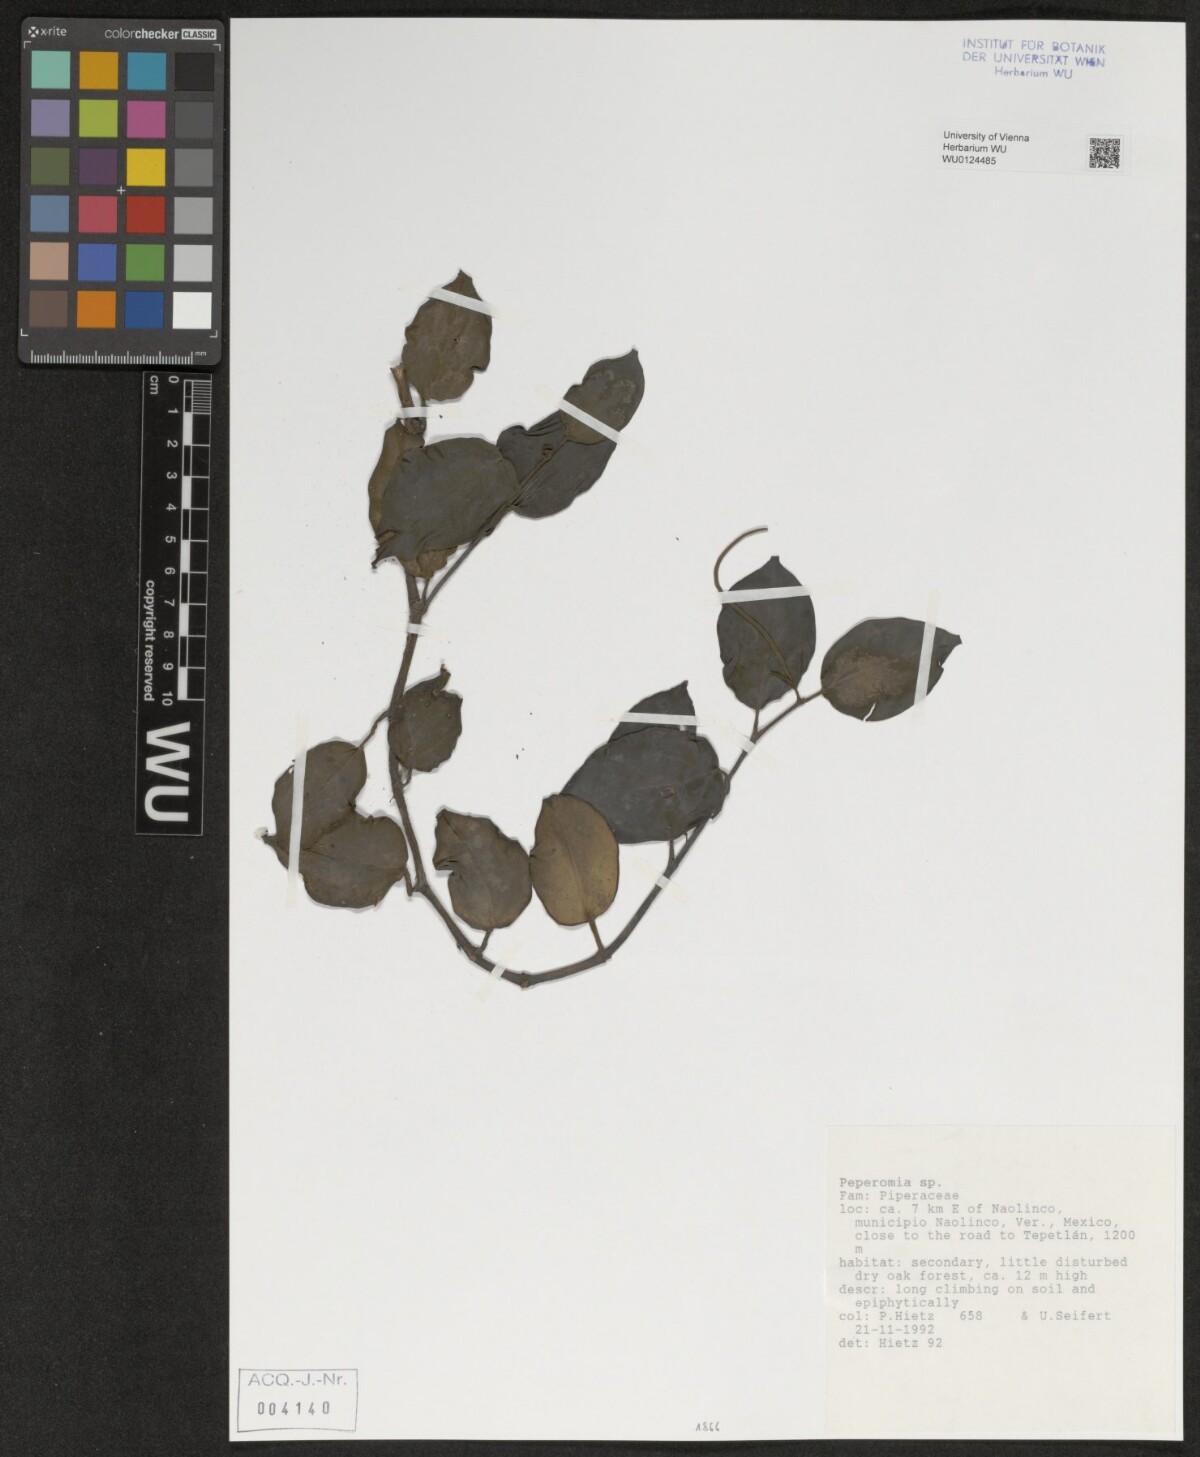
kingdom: Plantae
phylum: Tracheophyta
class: Magnoliopsida
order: Piperales
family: Piperaceae
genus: Peperomia
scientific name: Peperomia
